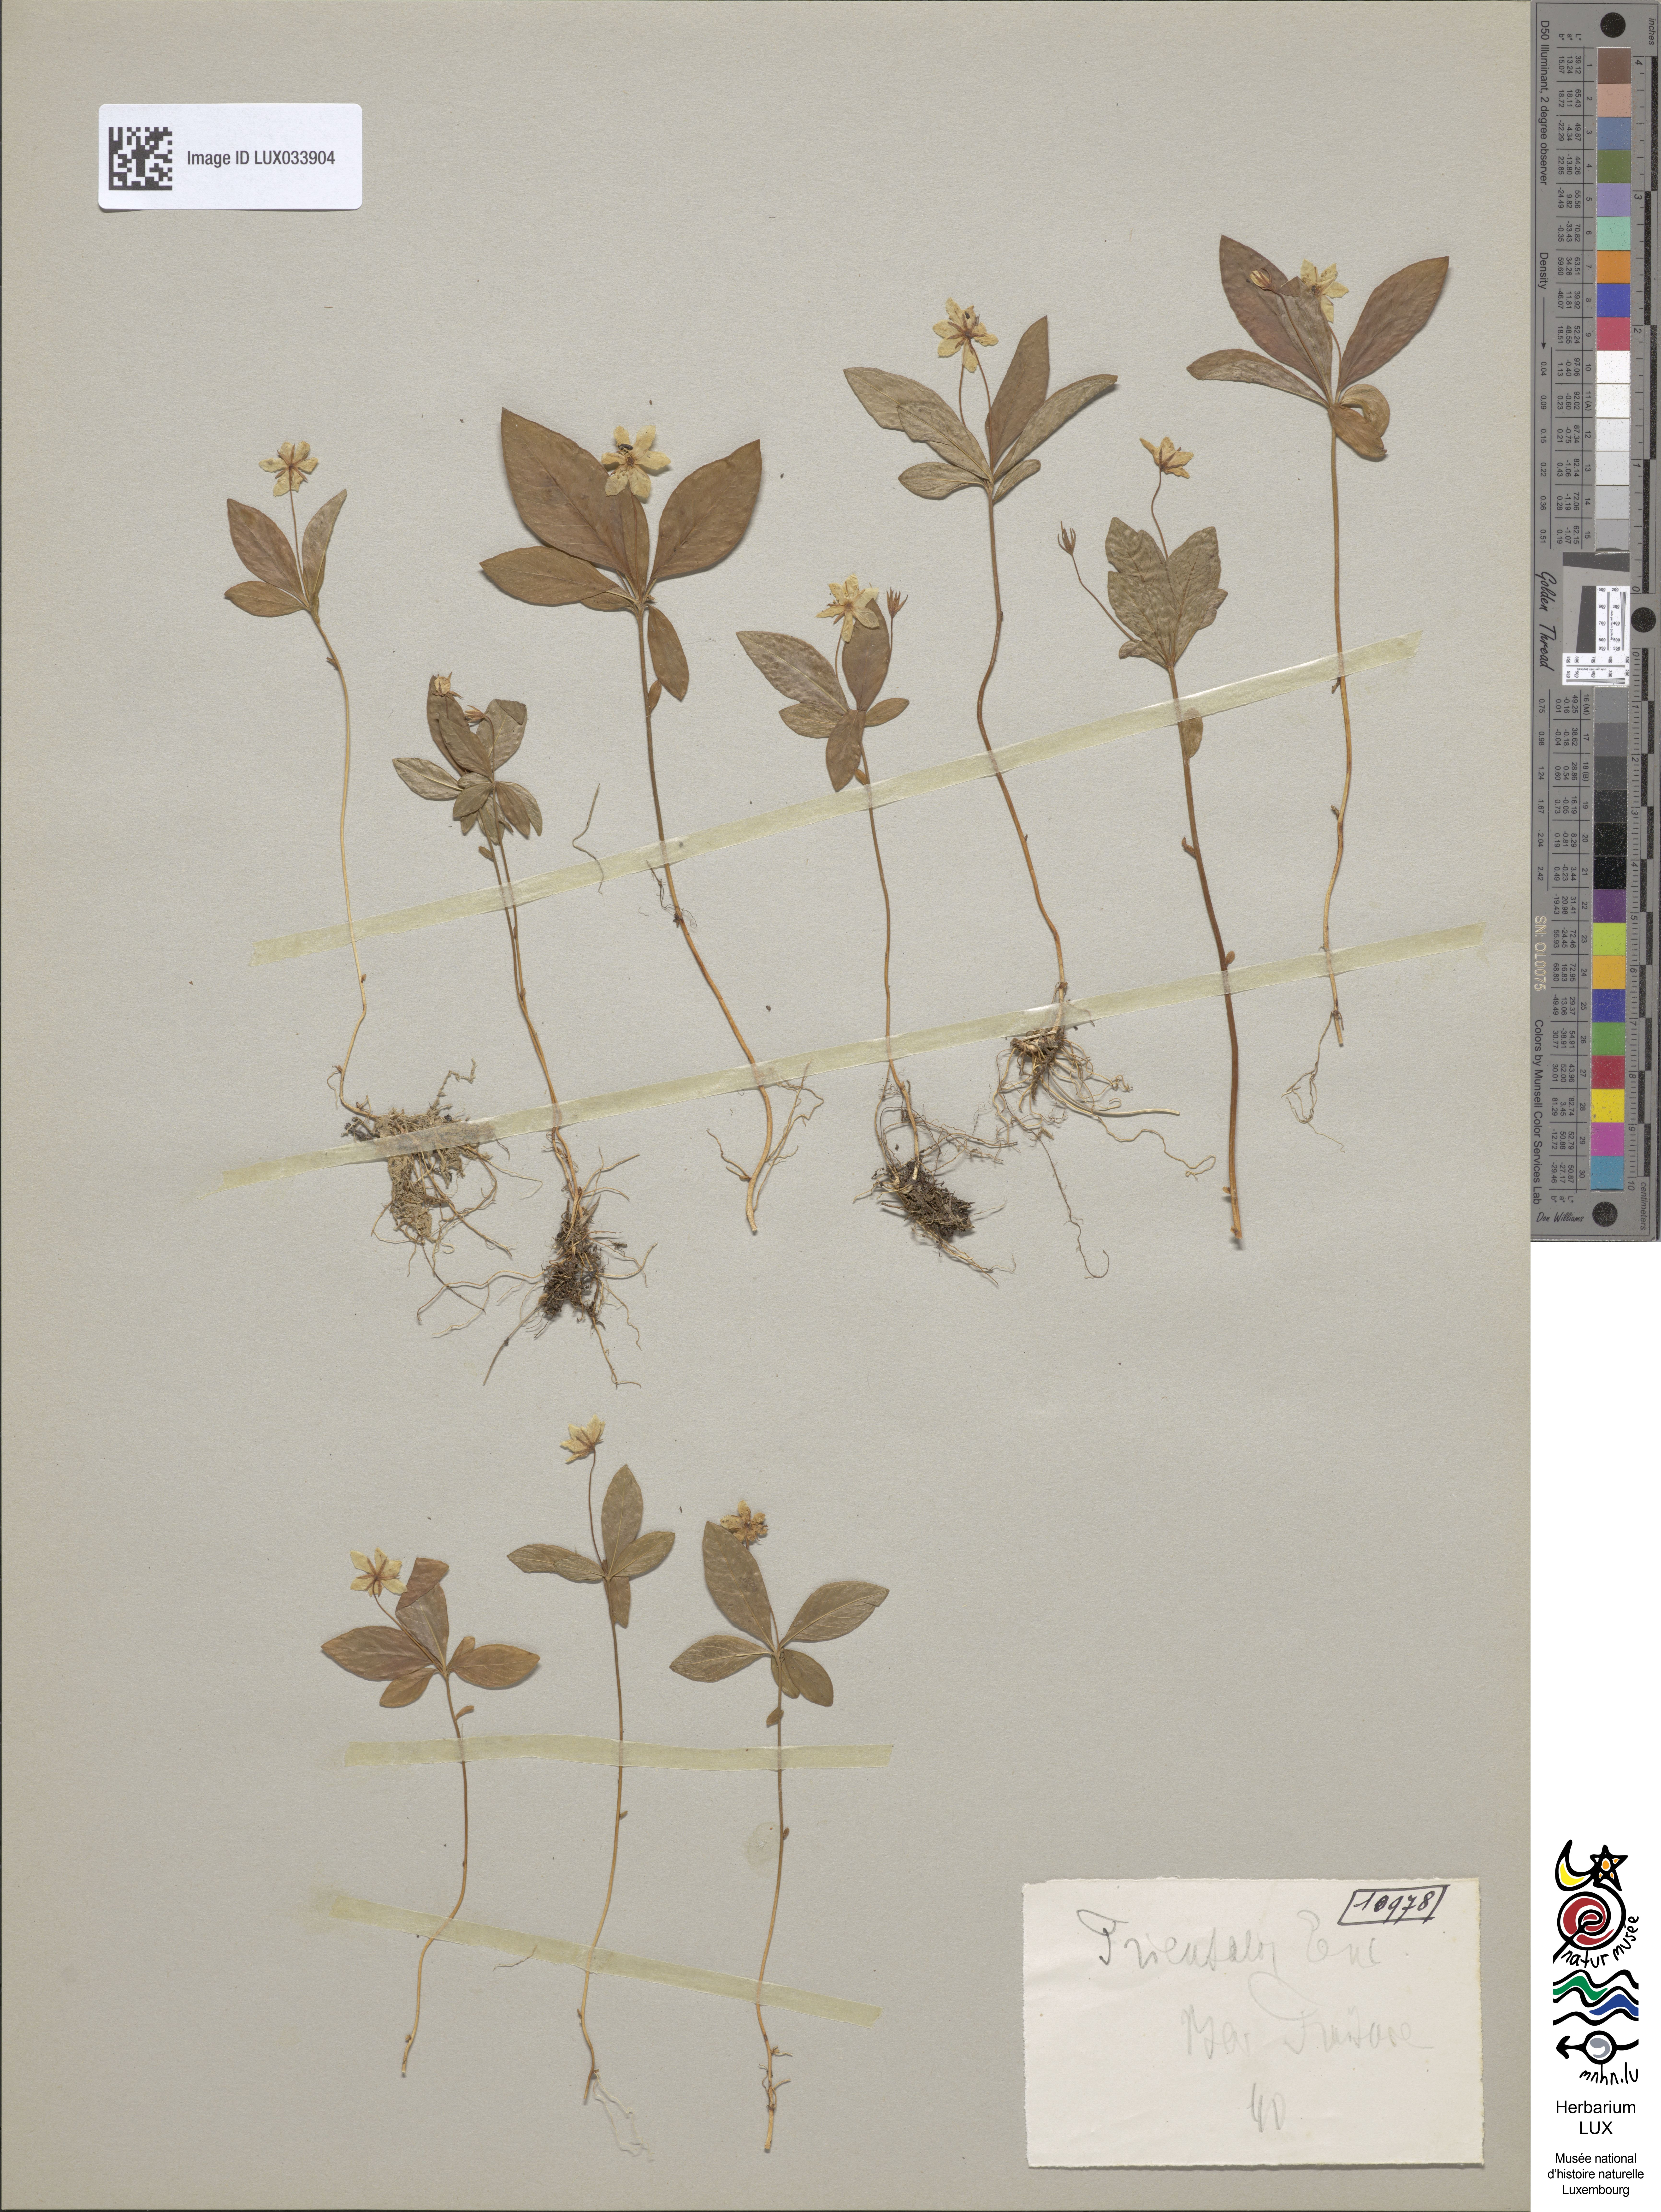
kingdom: Plantae
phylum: Tracheophyta
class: Magnoliopsida
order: Ericales
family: Primulaceae
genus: Lysimachia
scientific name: Lysimachia europaea
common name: Arctic starflower
